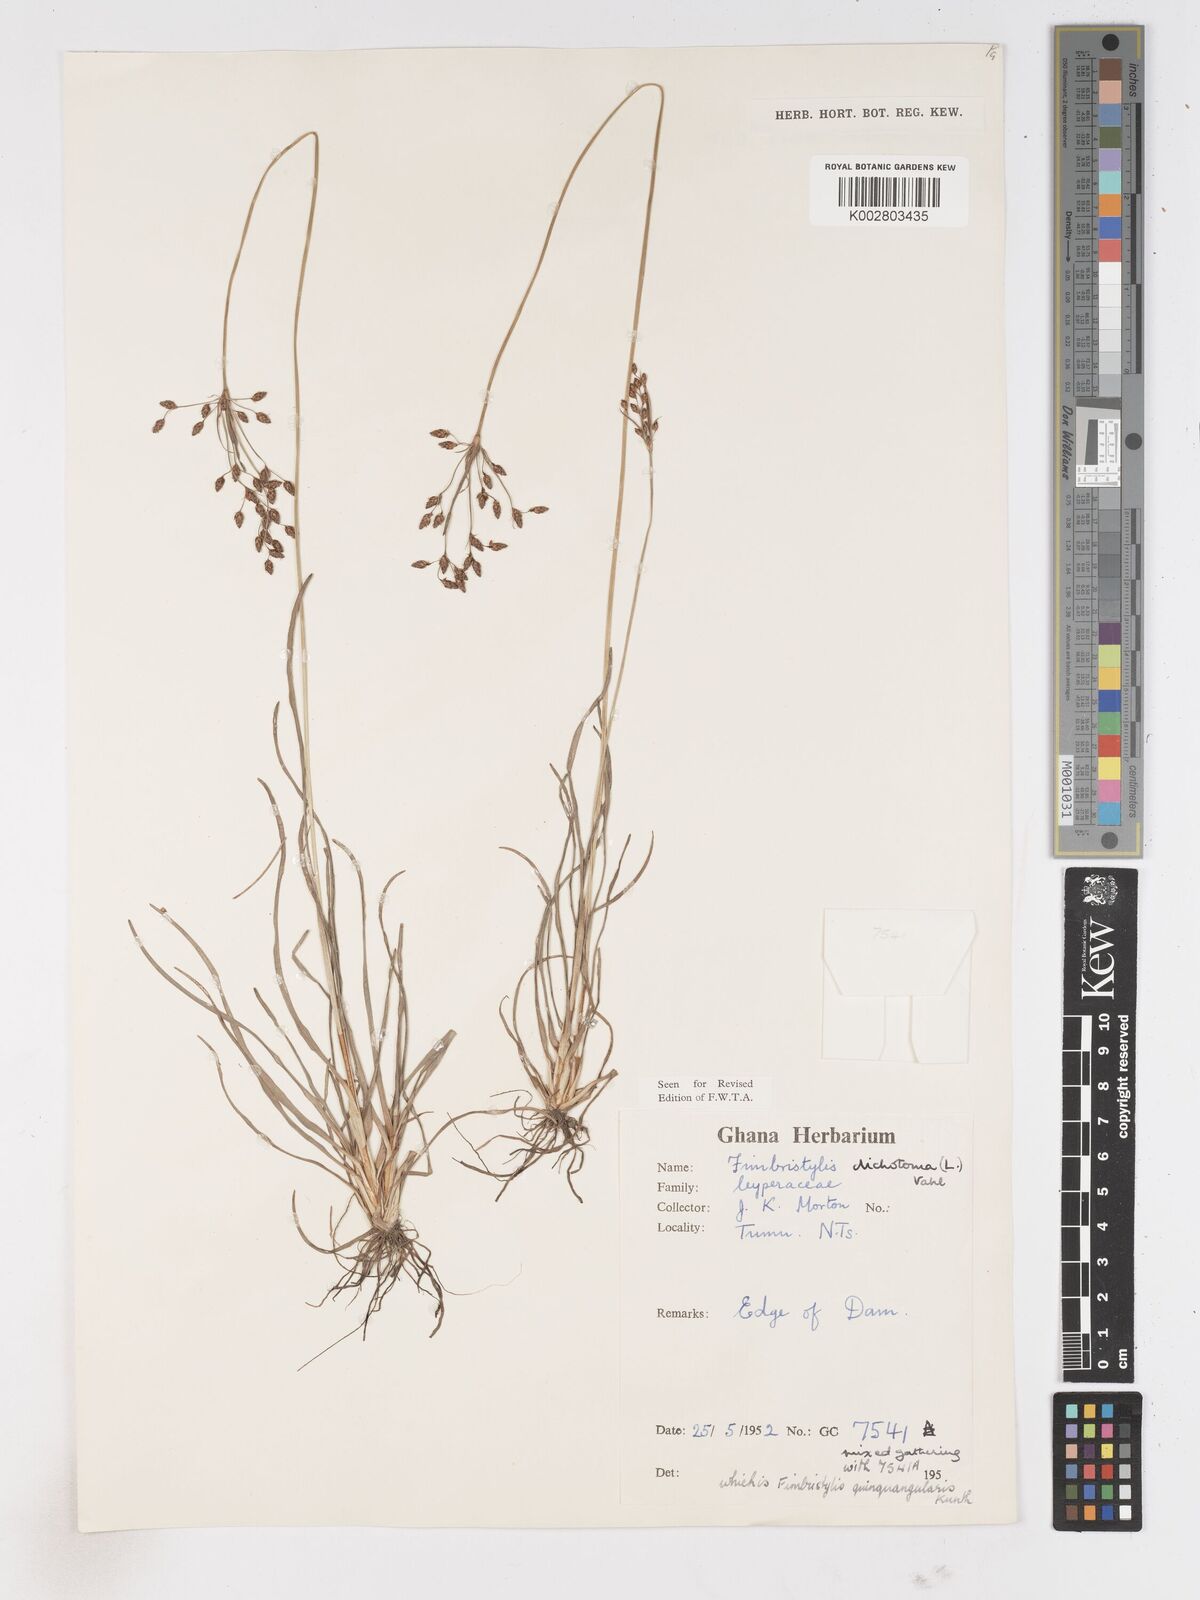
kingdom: Plantae
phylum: Tracheophyta
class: Liliopsida
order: Poales
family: Cyperaceae
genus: Fimbristylis
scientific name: Fimbristylis dichotoma
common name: Forked fimbry
